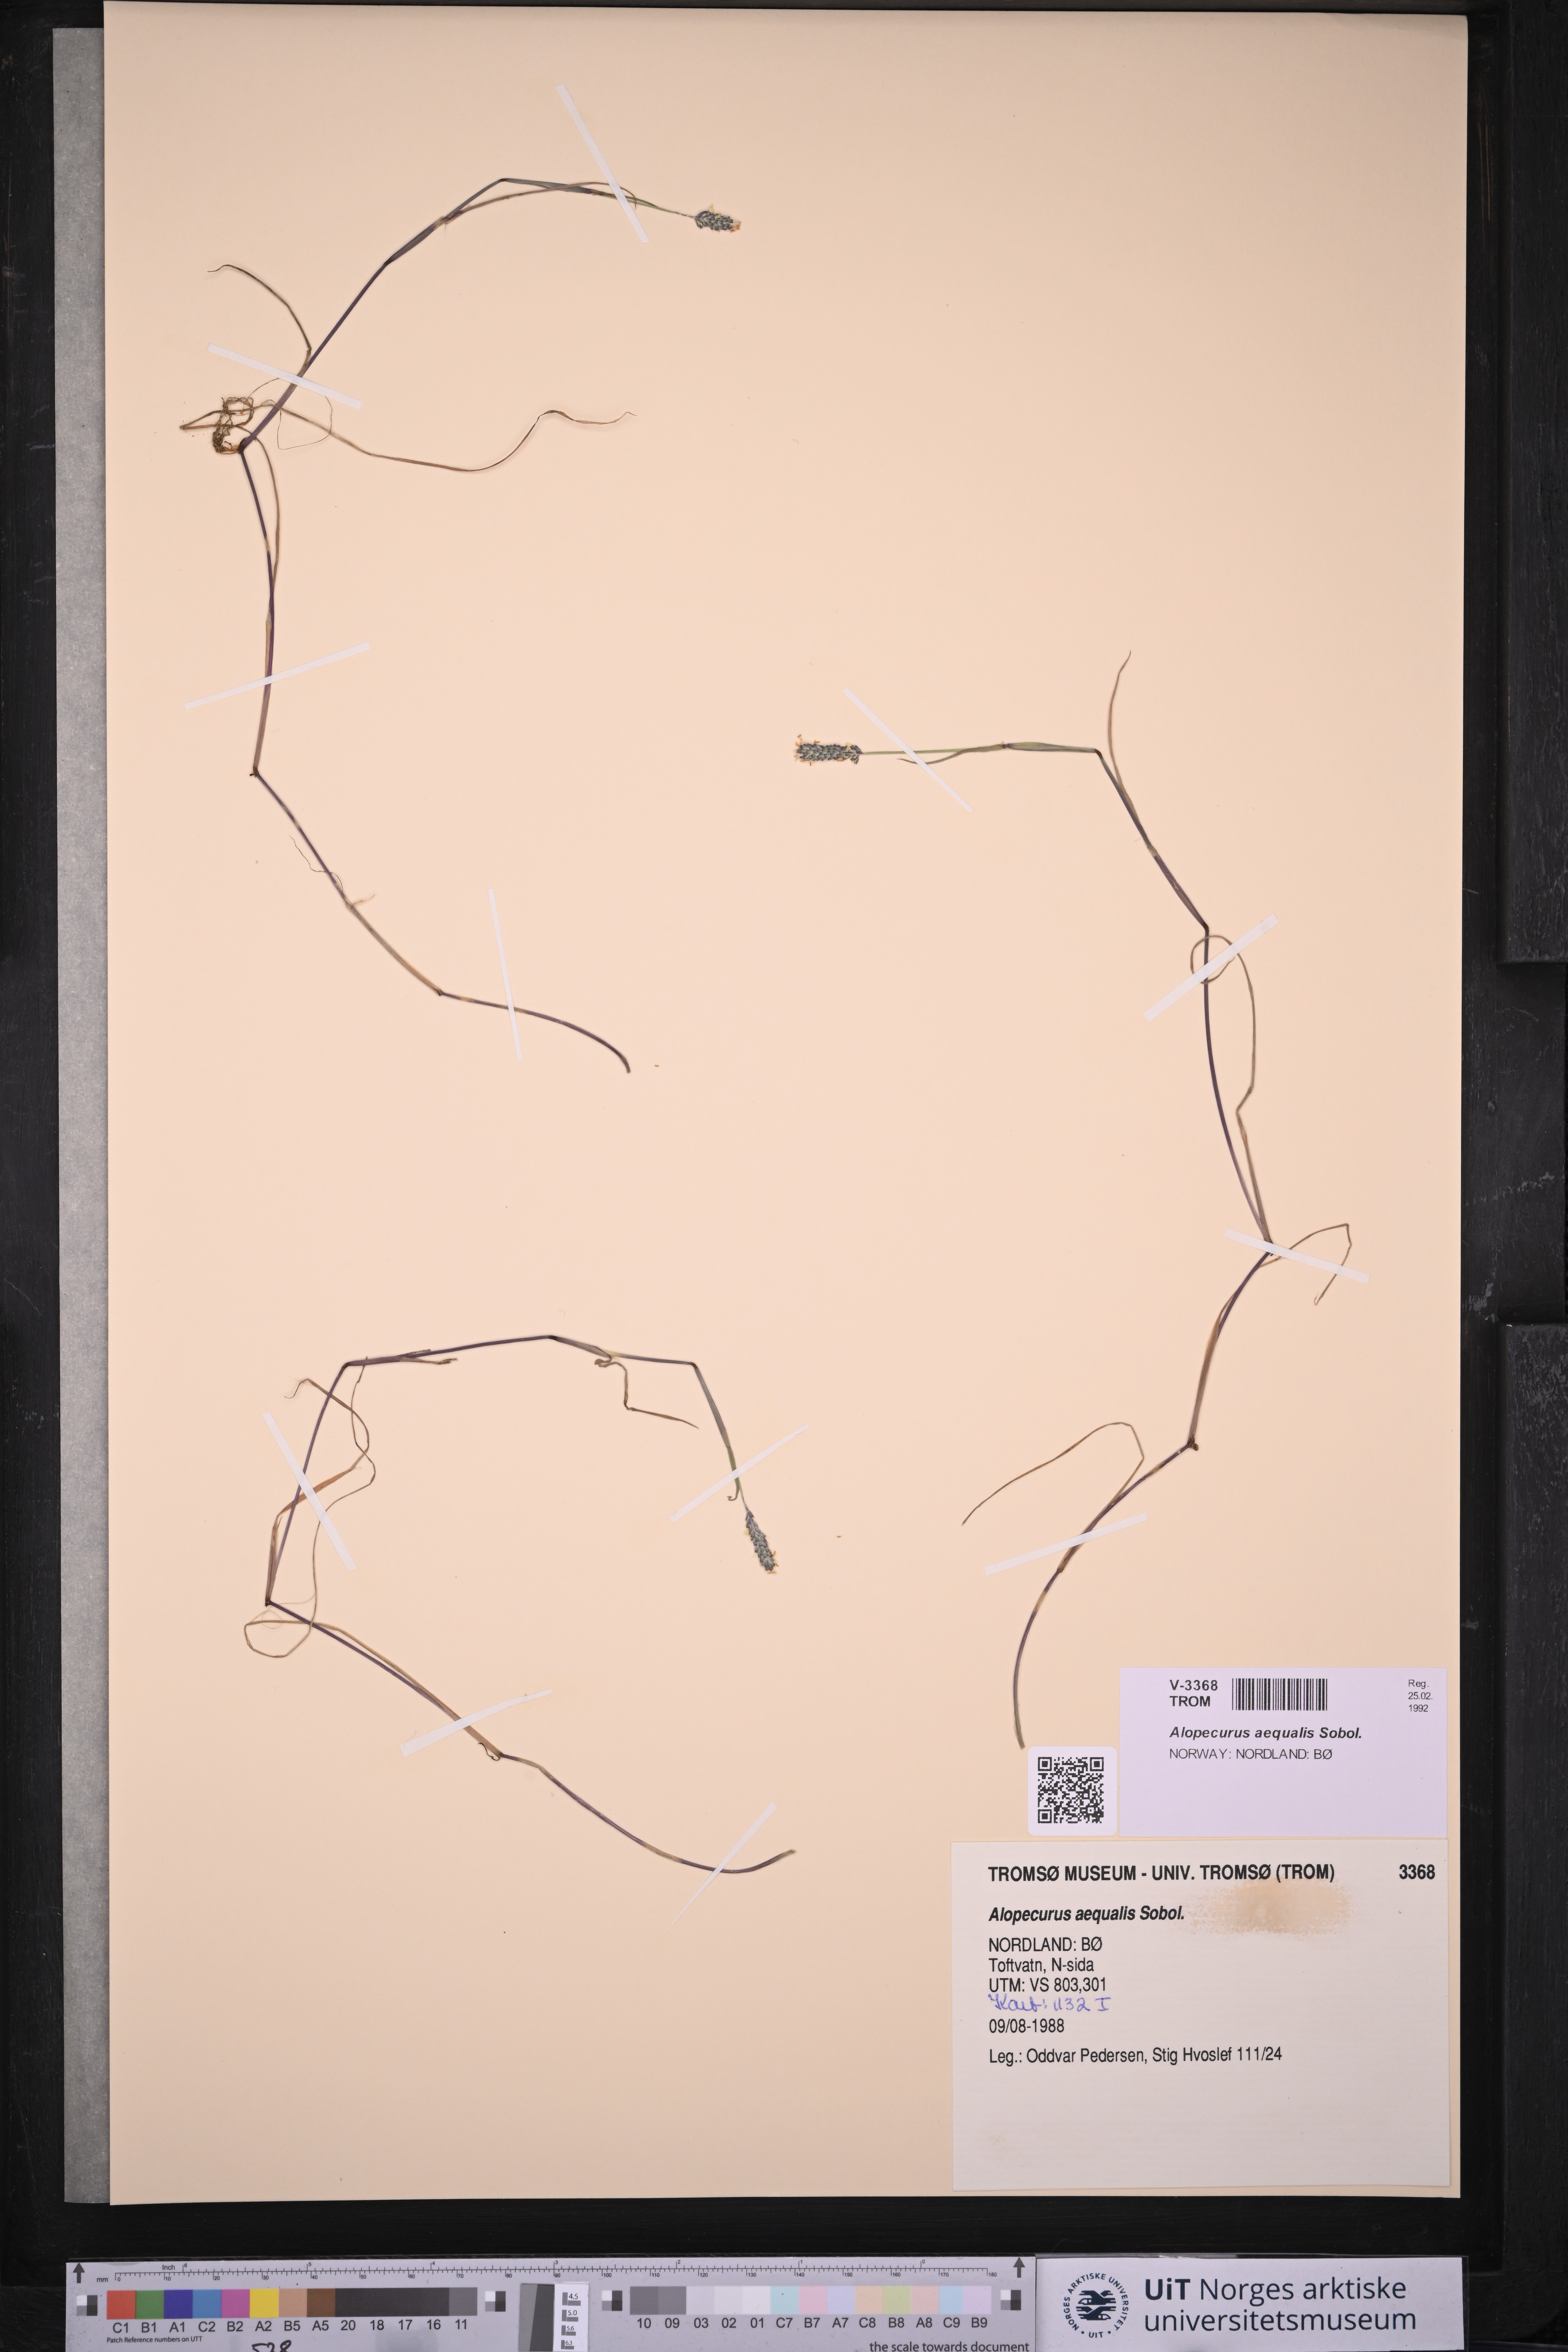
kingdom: Plantae
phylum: Tracheophyta
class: Liliopsida
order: Poales
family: Poaceae
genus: Alopecurus
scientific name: Alopecurus aequalis
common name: Orange foxtail
